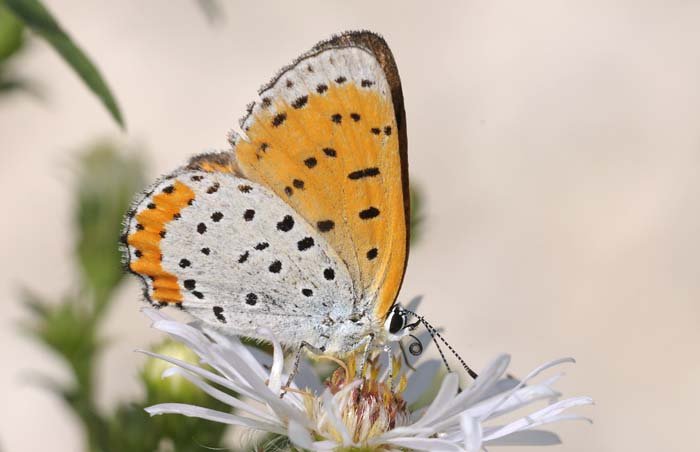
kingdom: Animalia
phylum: Arthropoda
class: Insecta
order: Lepidoptera
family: Sesiidae
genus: Sesia
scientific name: Sesia Lycaena hyllus
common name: Bronze Copper
